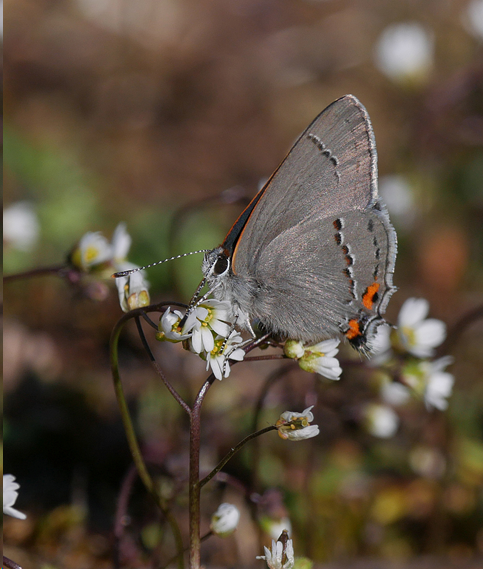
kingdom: Animalia
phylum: Arthropoda
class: Insecta
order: Lepidoptera
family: Lycaenidae
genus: Strymon
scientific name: Strymon melinus
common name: Gray Hairstreak
